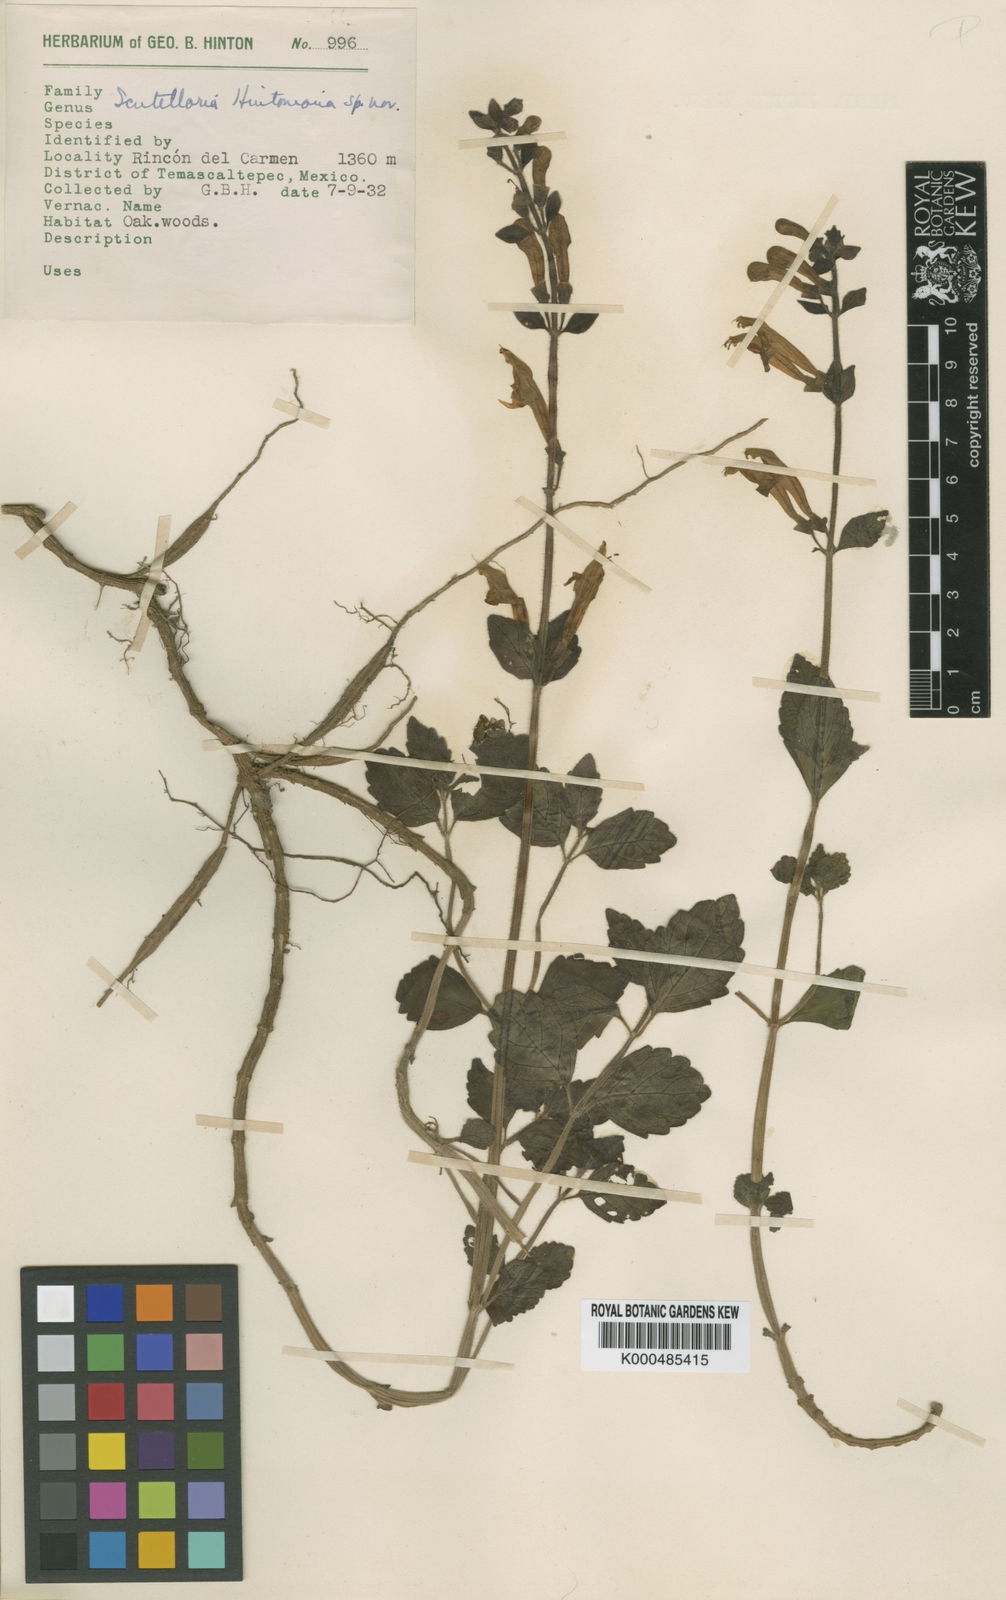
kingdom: Plantae
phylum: Tracheophyta
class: Magnoliopsida
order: Lamiales
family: Lamiaceae
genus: Scutellaria
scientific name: Scutellaria hintoniana
